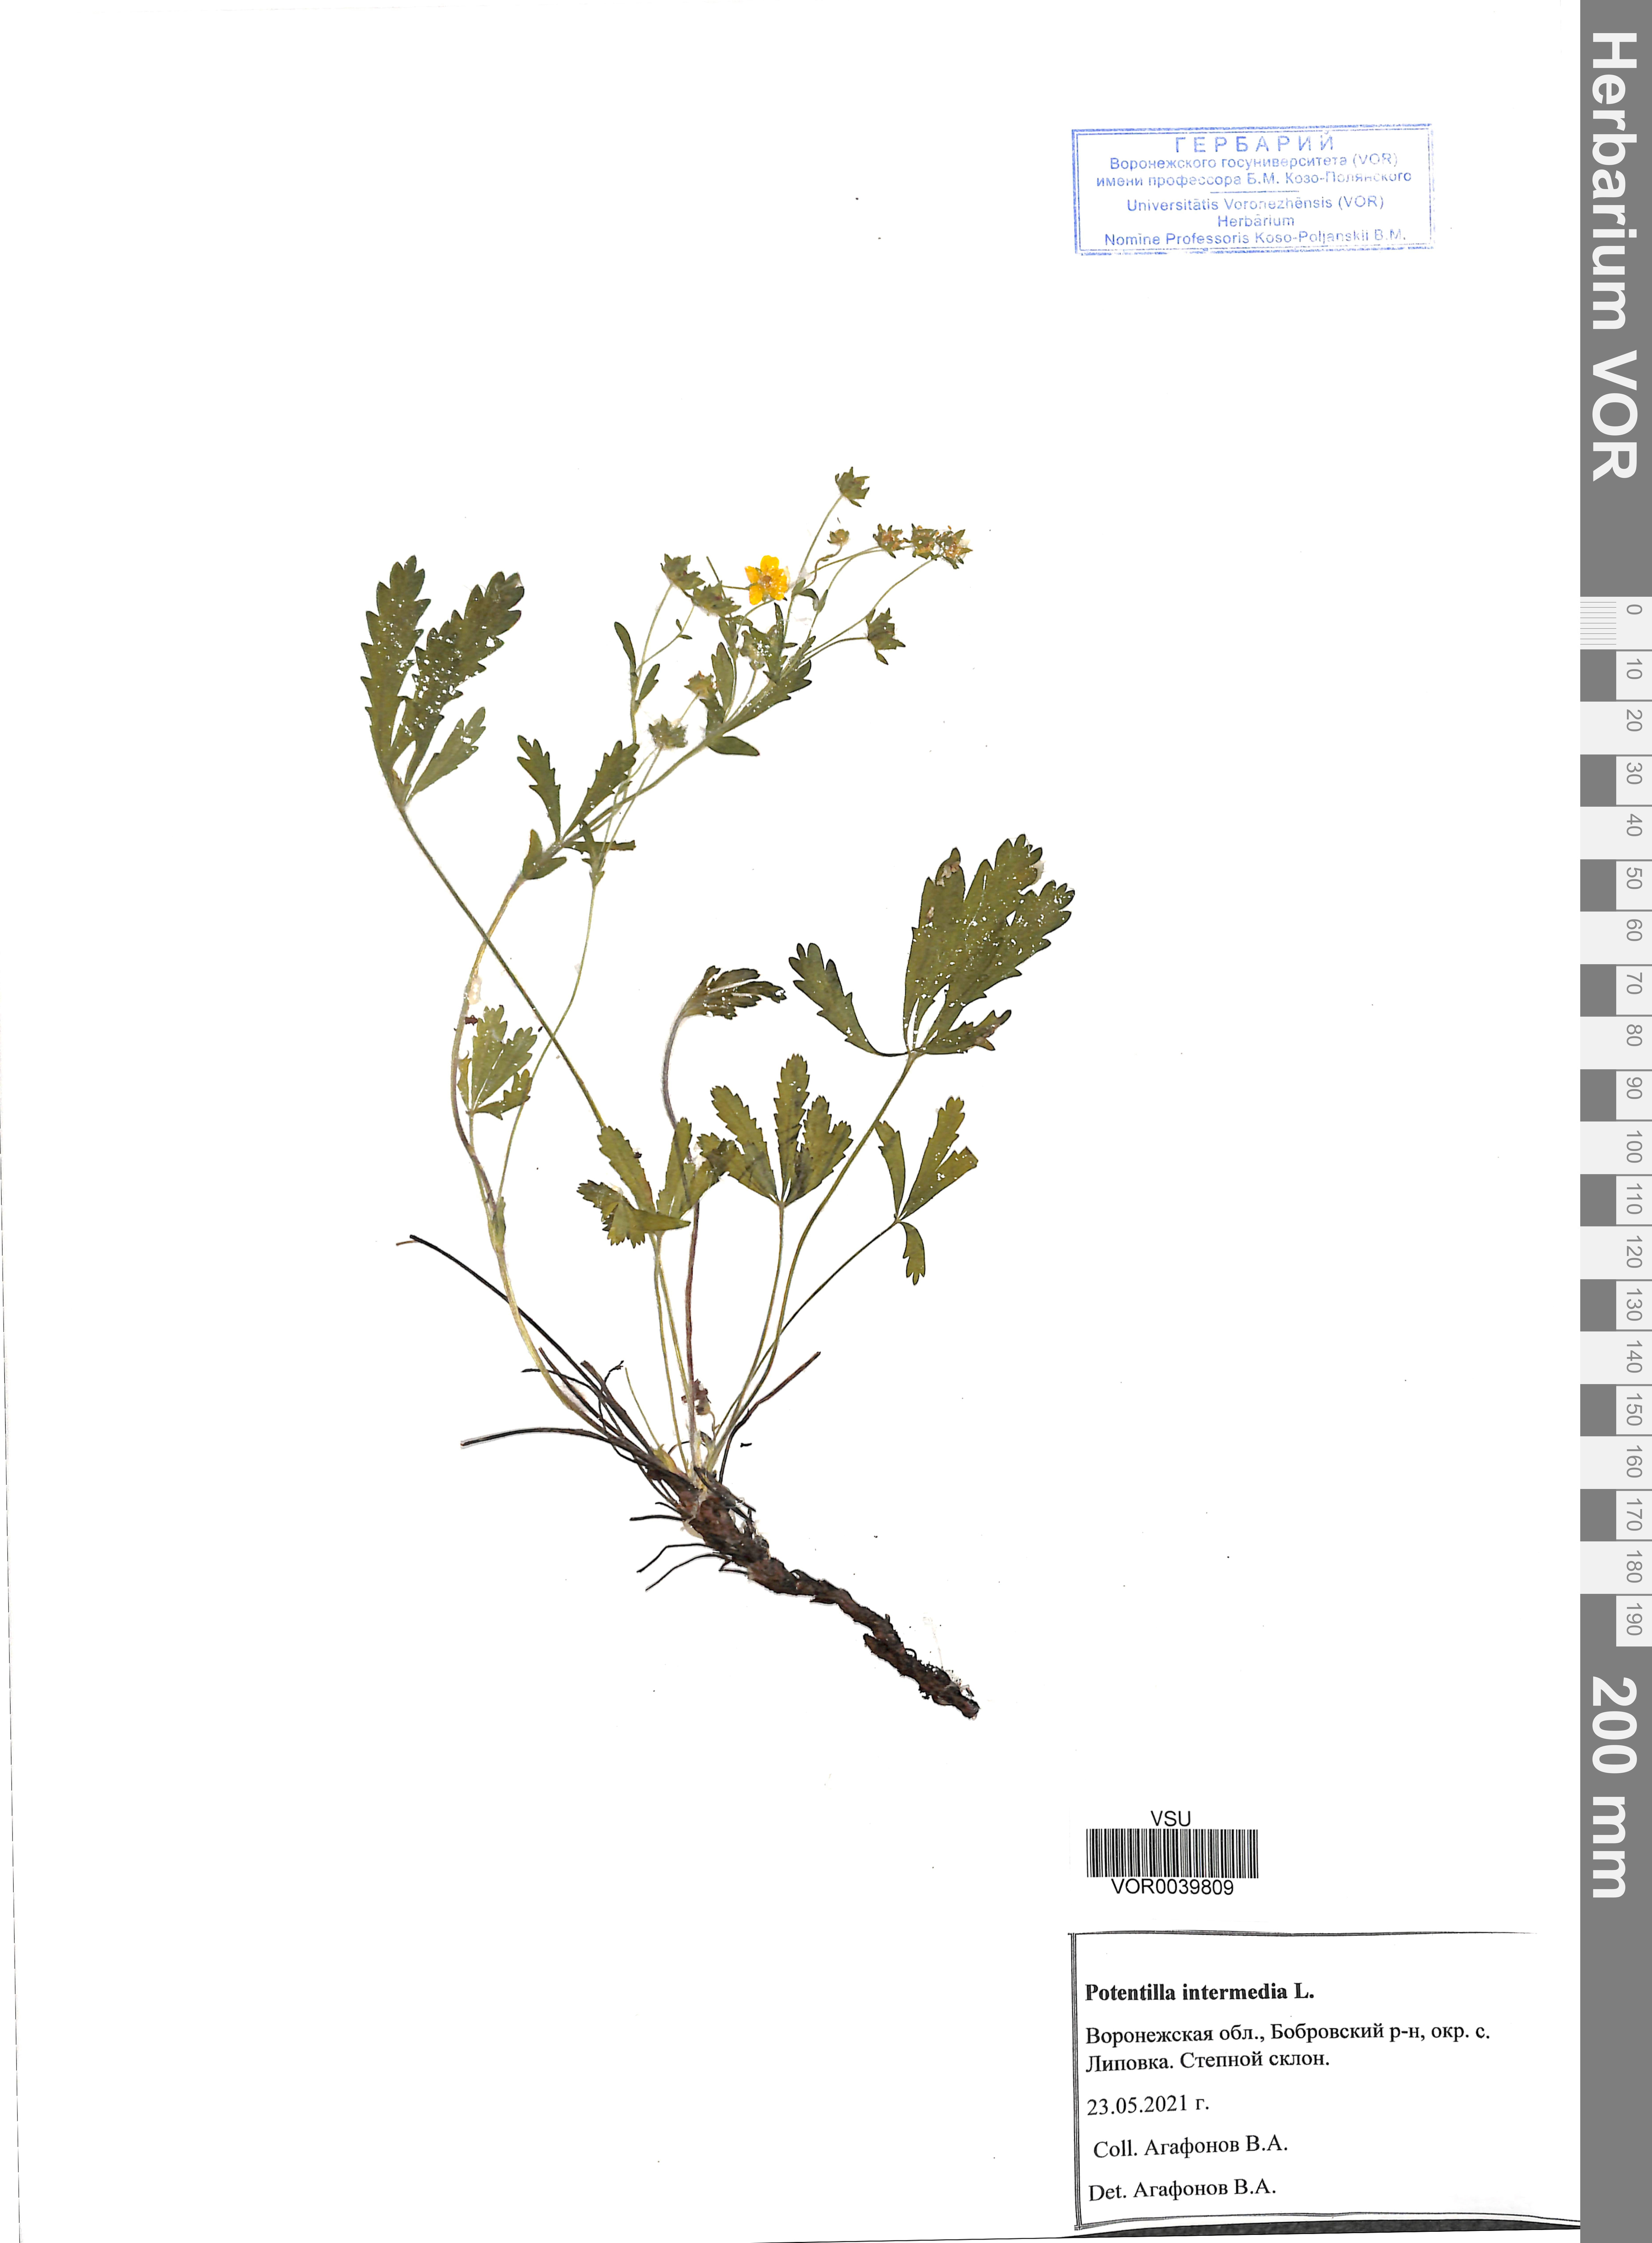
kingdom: Plantae
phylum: Tracheophyta
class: Magnoliopsida
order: Rosales
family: Rosaceae
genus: Potentilla
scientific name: Potentilla intermedia
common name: Downy cinquefoil
